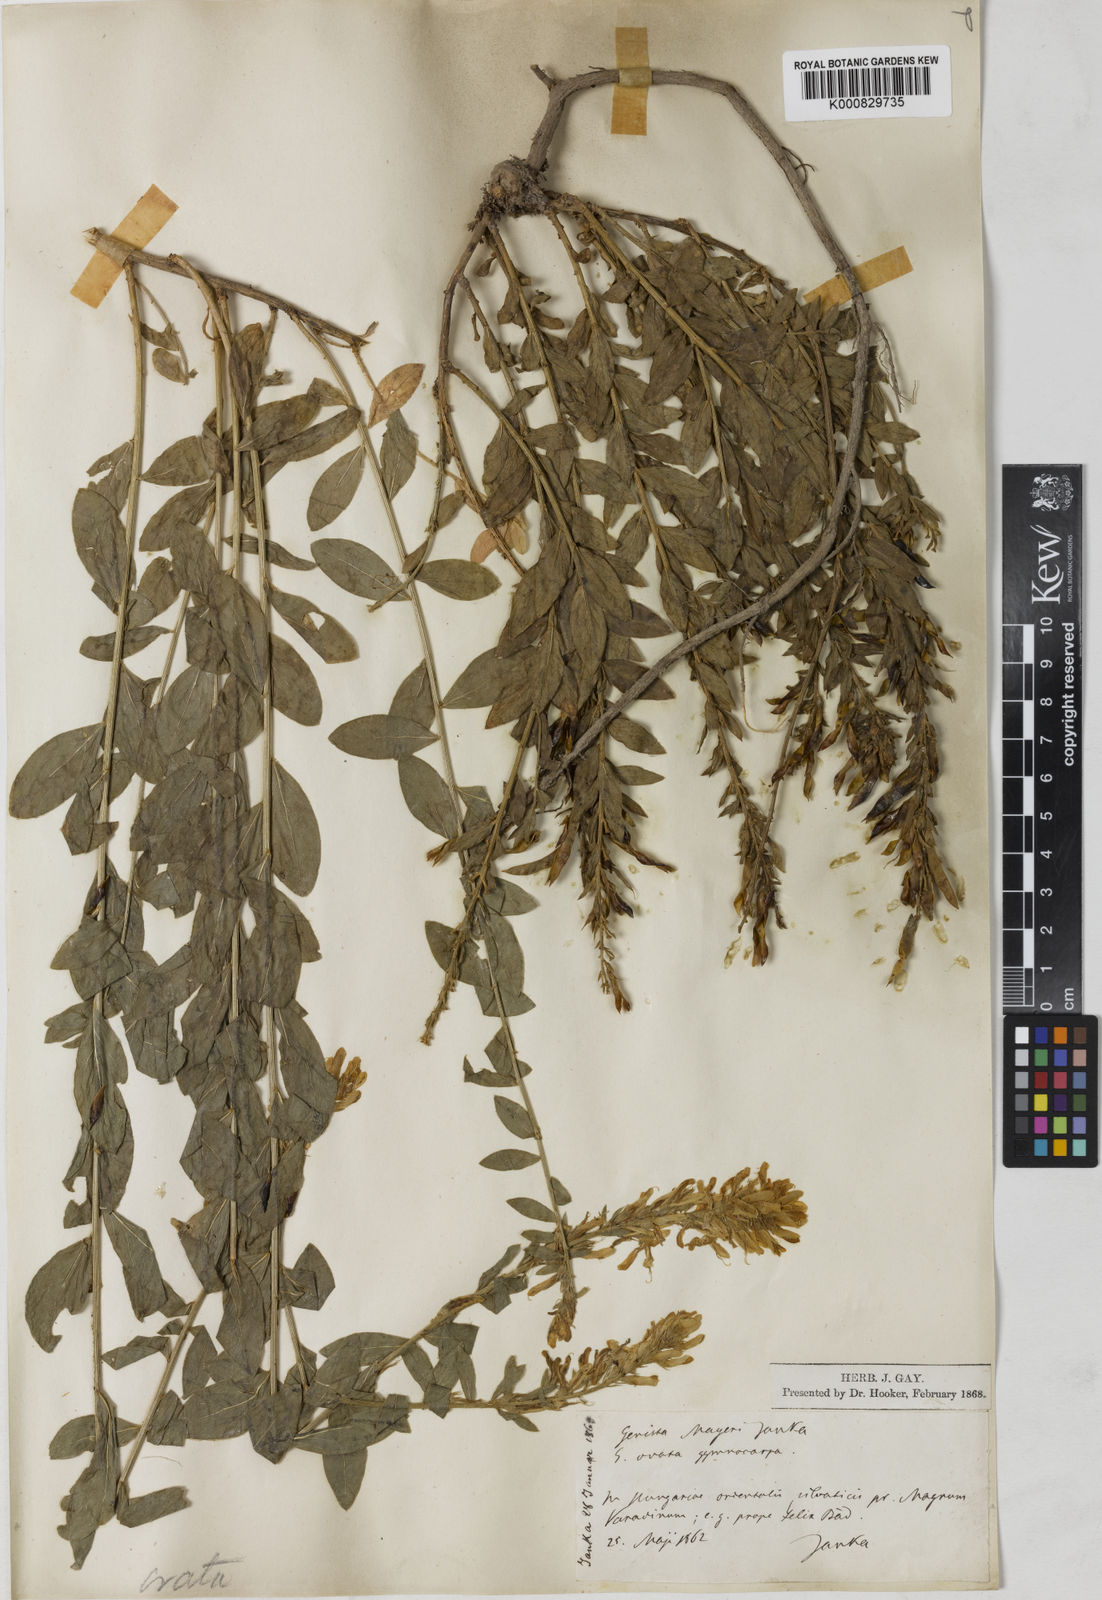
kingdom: Plantae
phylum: Tracheophyta
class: Magnoliopsida
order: Fabales
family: Fabaceae
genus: Genista
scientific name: Genista tinctoria
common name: Dyer's greenweed
